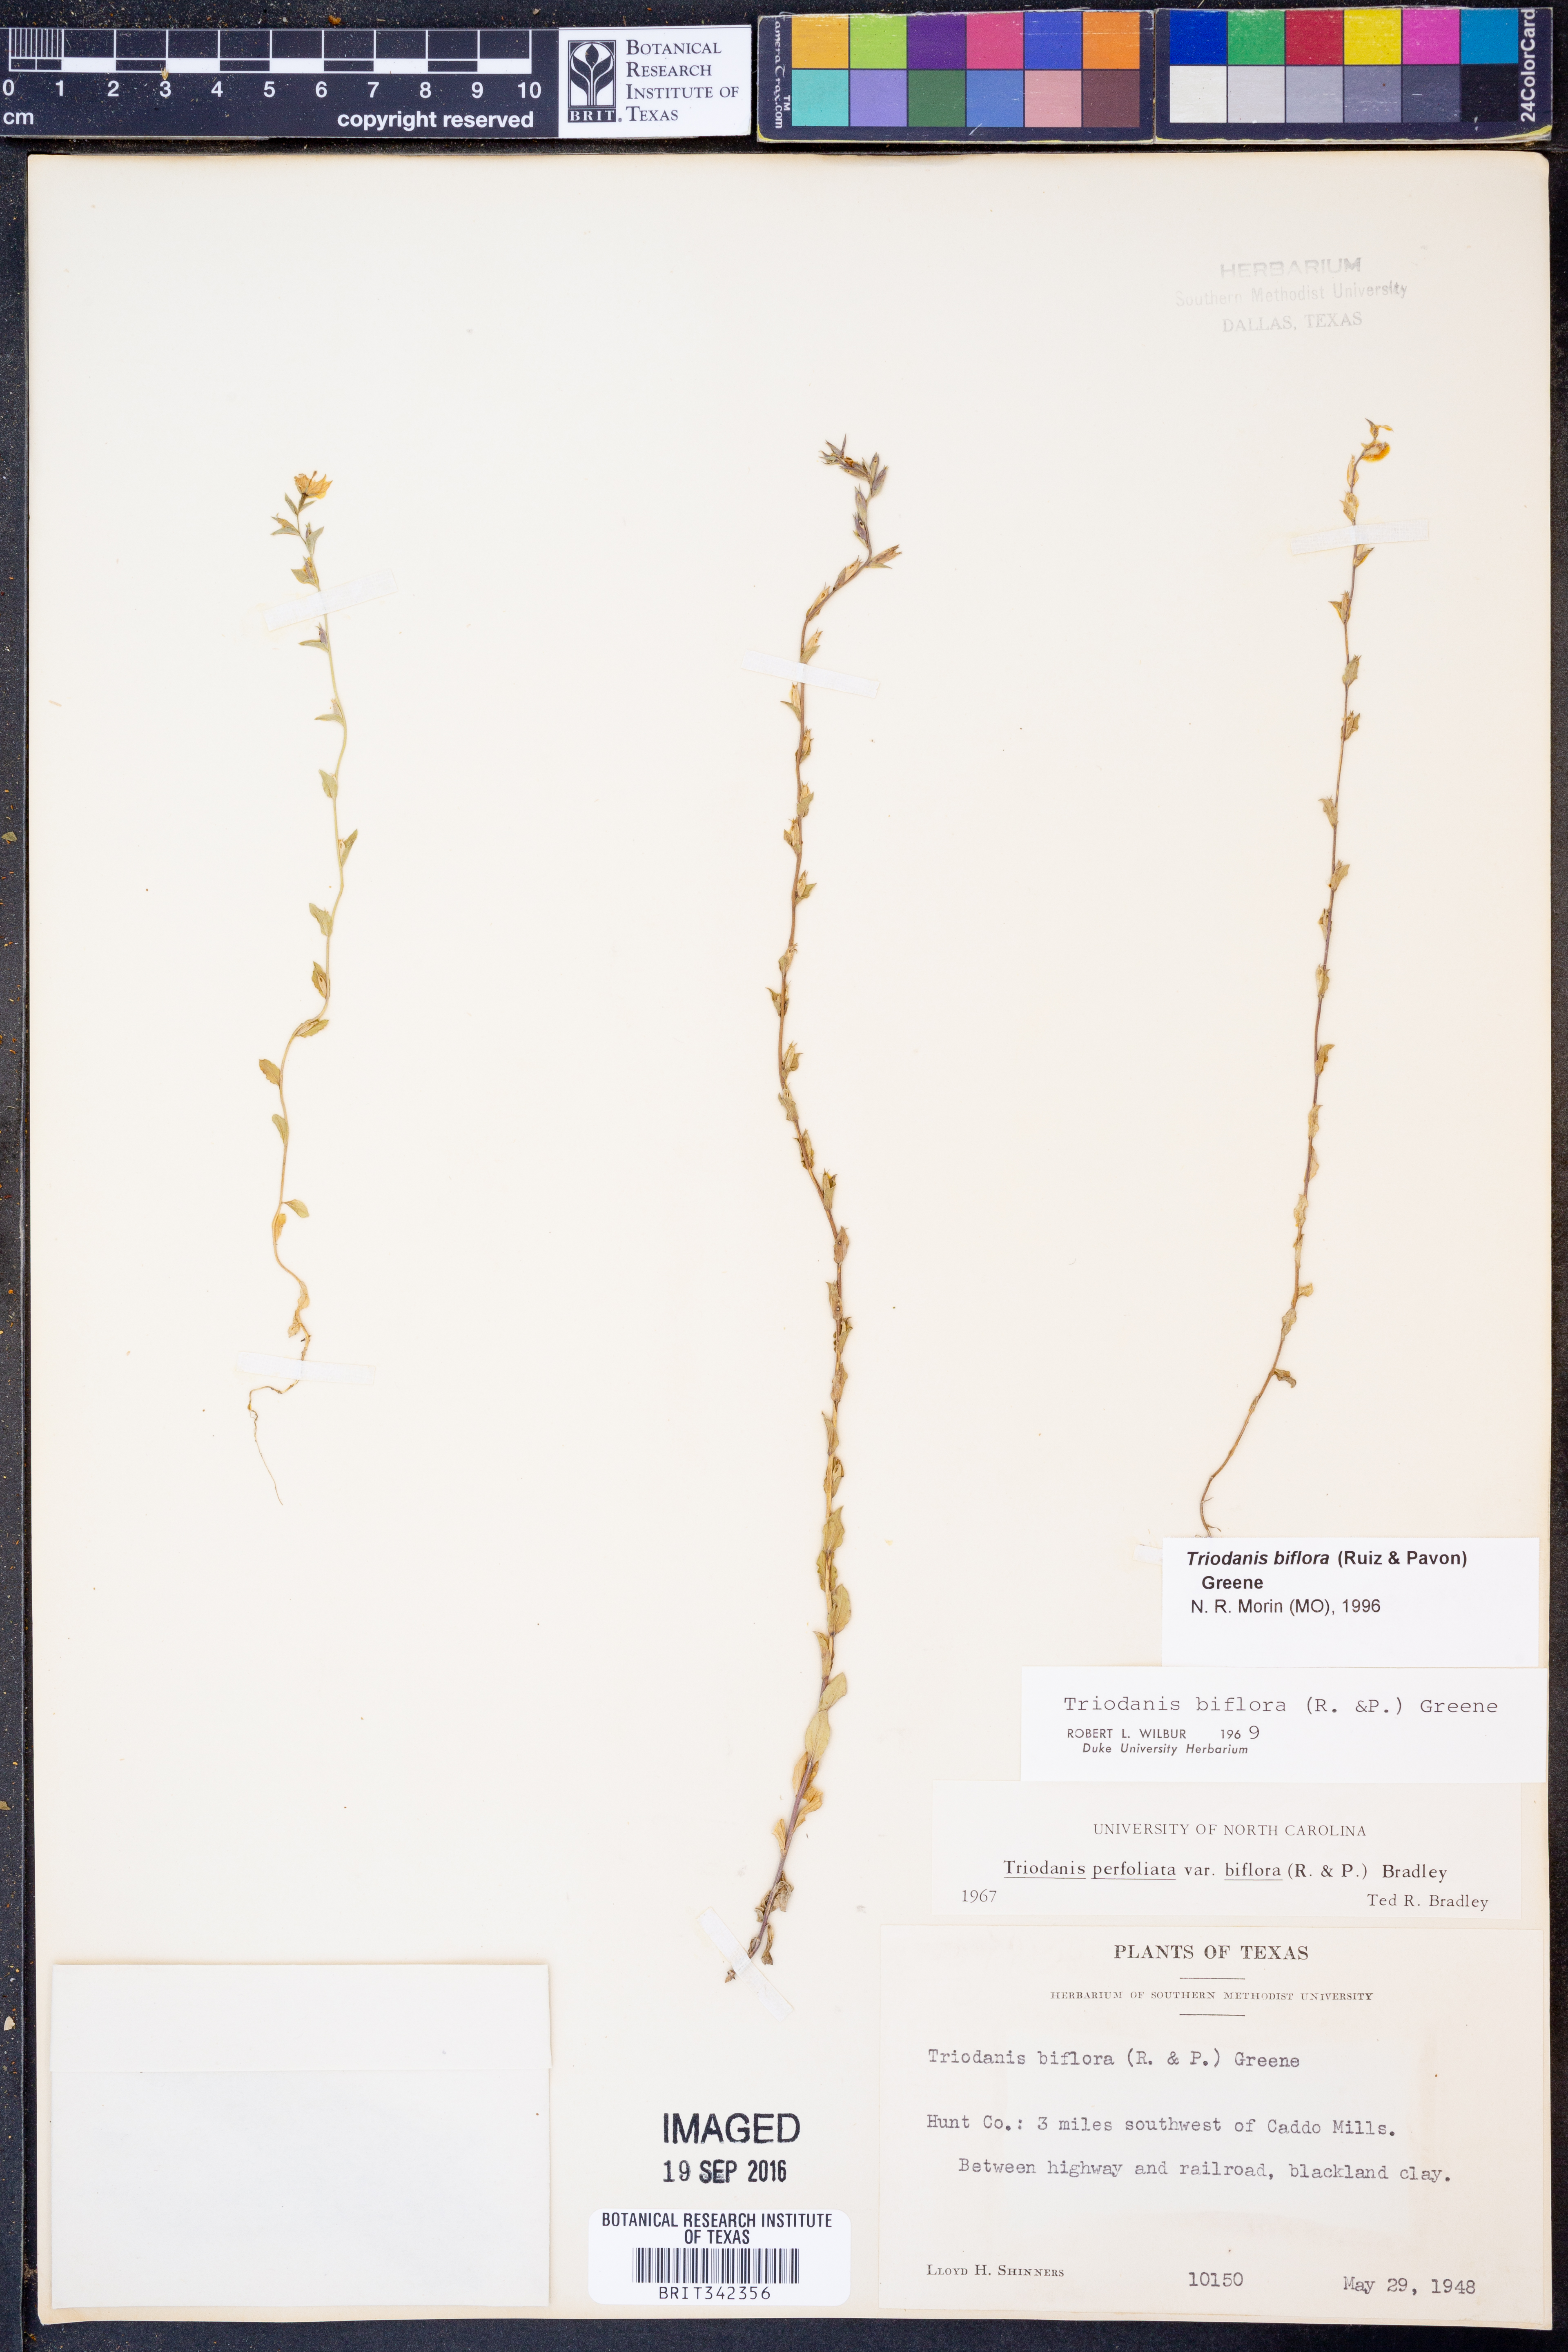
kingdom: Plantae
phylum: Tracheophyta
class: Magnoliopsida
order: Asterales
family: Campanulaceae
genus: Triodanis
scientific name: Triodanis perfoliata
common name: Clasping venus' looking-glass
